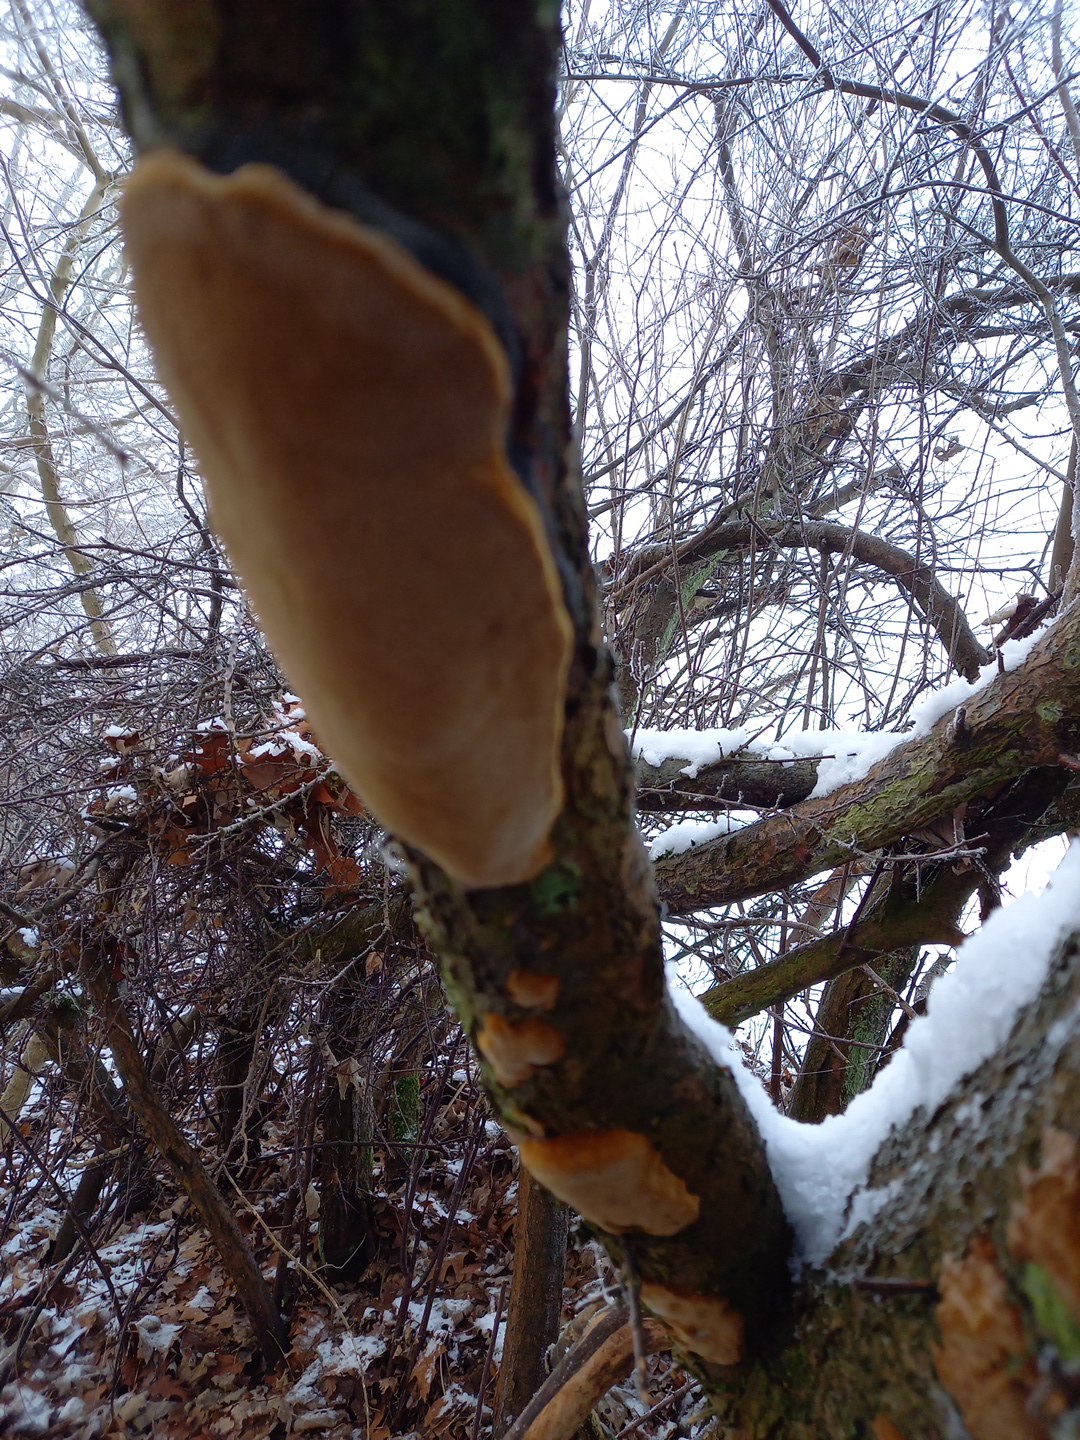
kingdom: Fungi
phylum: Basidiomycota
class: Agaricomycetes
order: Hymenochaetales
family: Hymenochaetaceae
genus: Phellinus
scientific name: Phellinus pomaceus
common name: blomme-ildporesvamp
